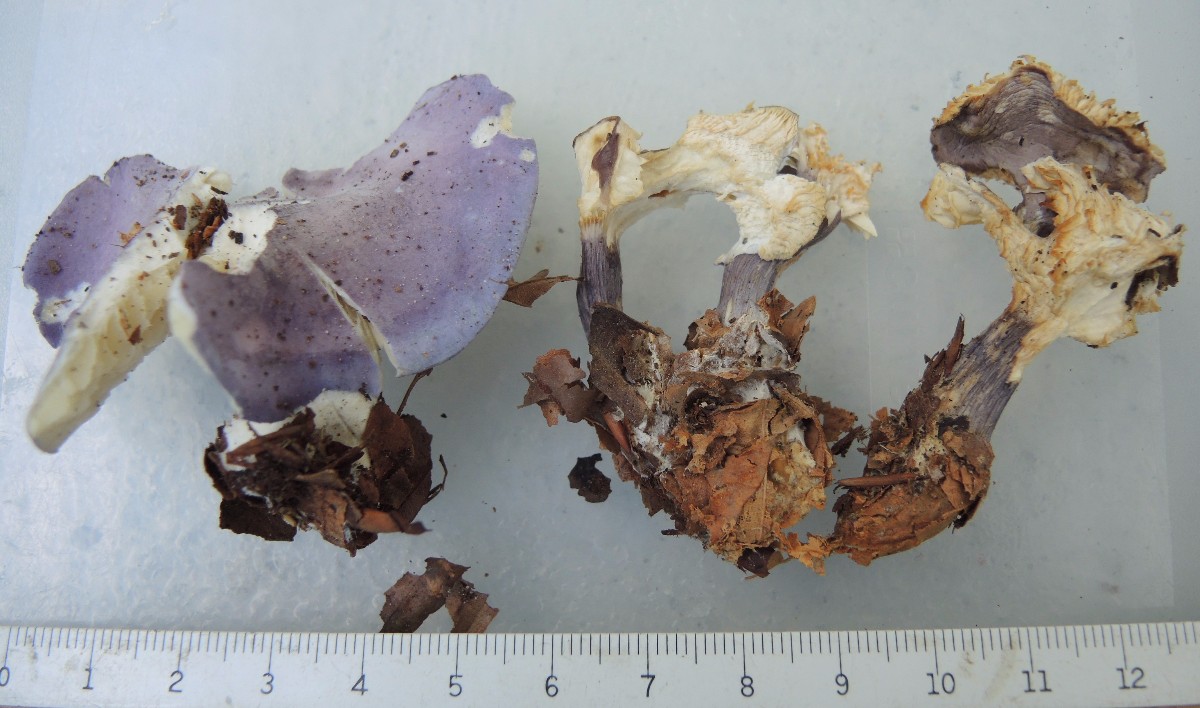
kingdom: Fungi
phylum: Basidiomycota
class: Agaricomycetes
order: Agaricales
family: Lyophyllaceae
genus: Calocybe
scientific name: Calocybe ionides
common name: violblå fagerhat
